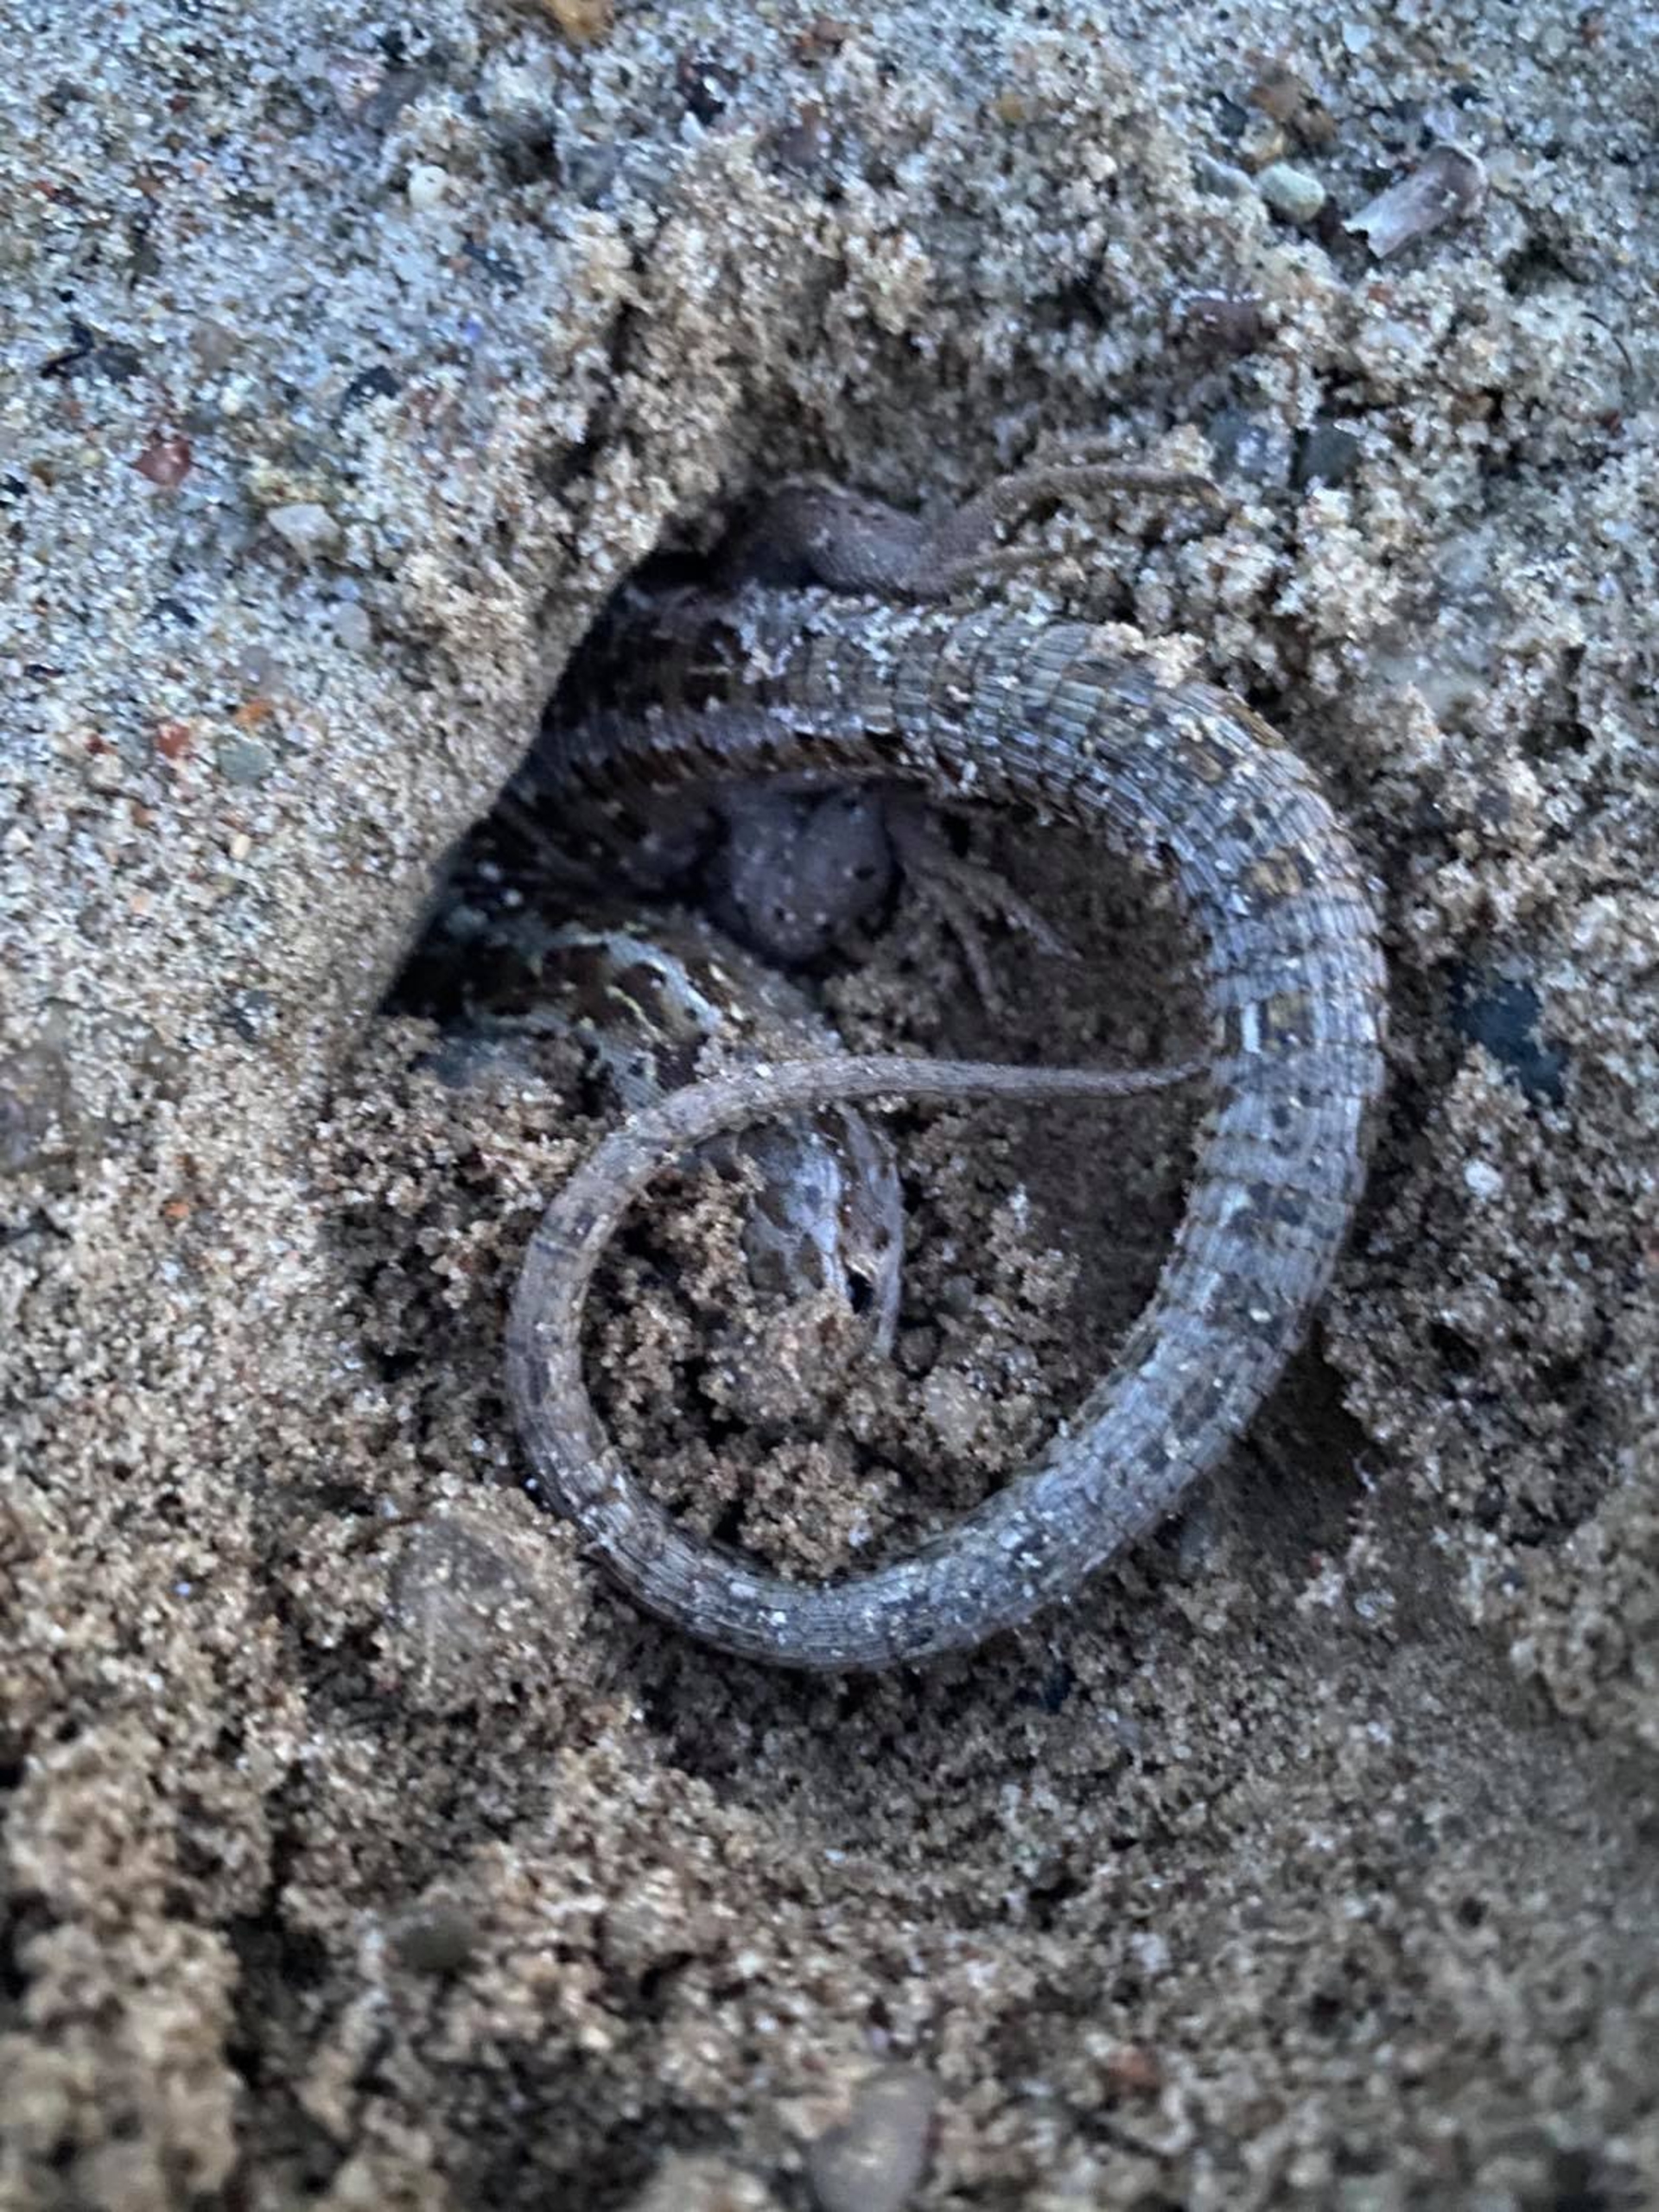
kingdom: Animalia
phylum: Chordata
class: Squamata
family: Lacertidae
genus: Lacerta
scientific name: Lacerta agilis
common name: Markfirben
